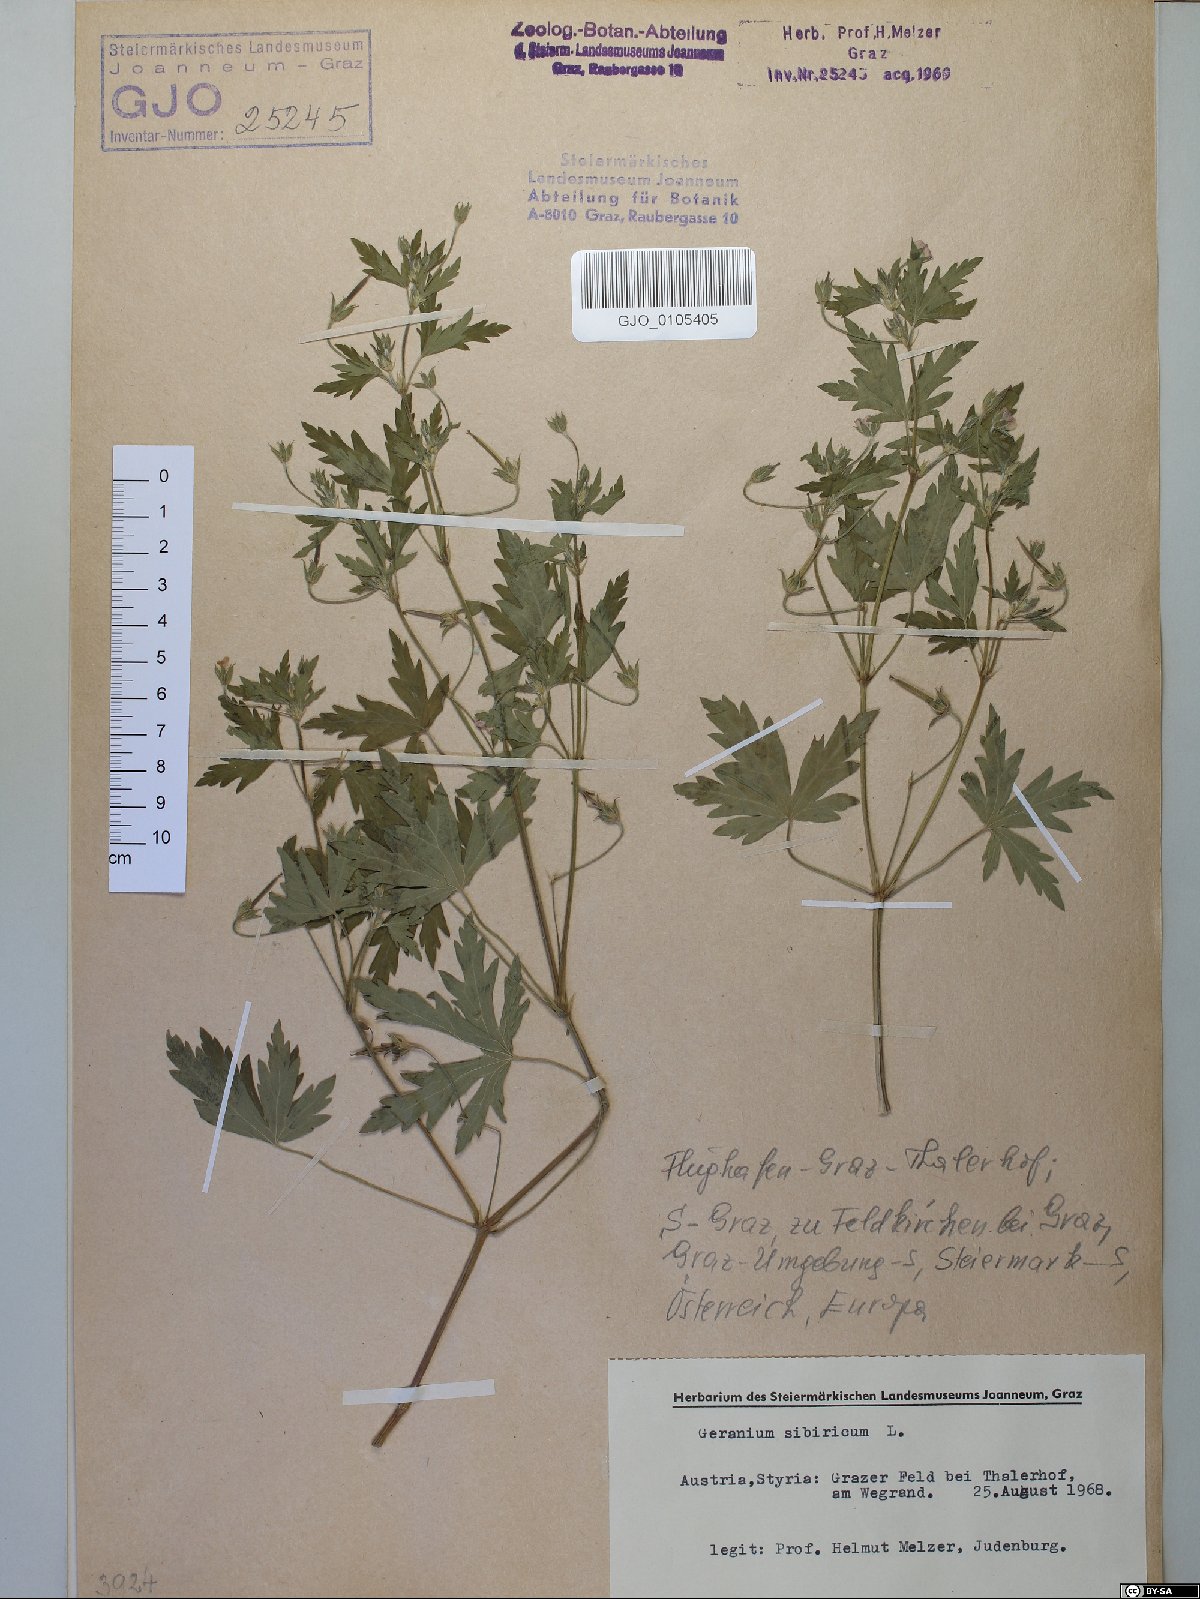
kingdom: Plantae
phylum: Tracheophyta
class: Magnoliopsida
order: Geraniales
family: Geraniaceae
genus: Geranium
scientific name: Geranium sibiricum
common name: Siberian crane's-bill
